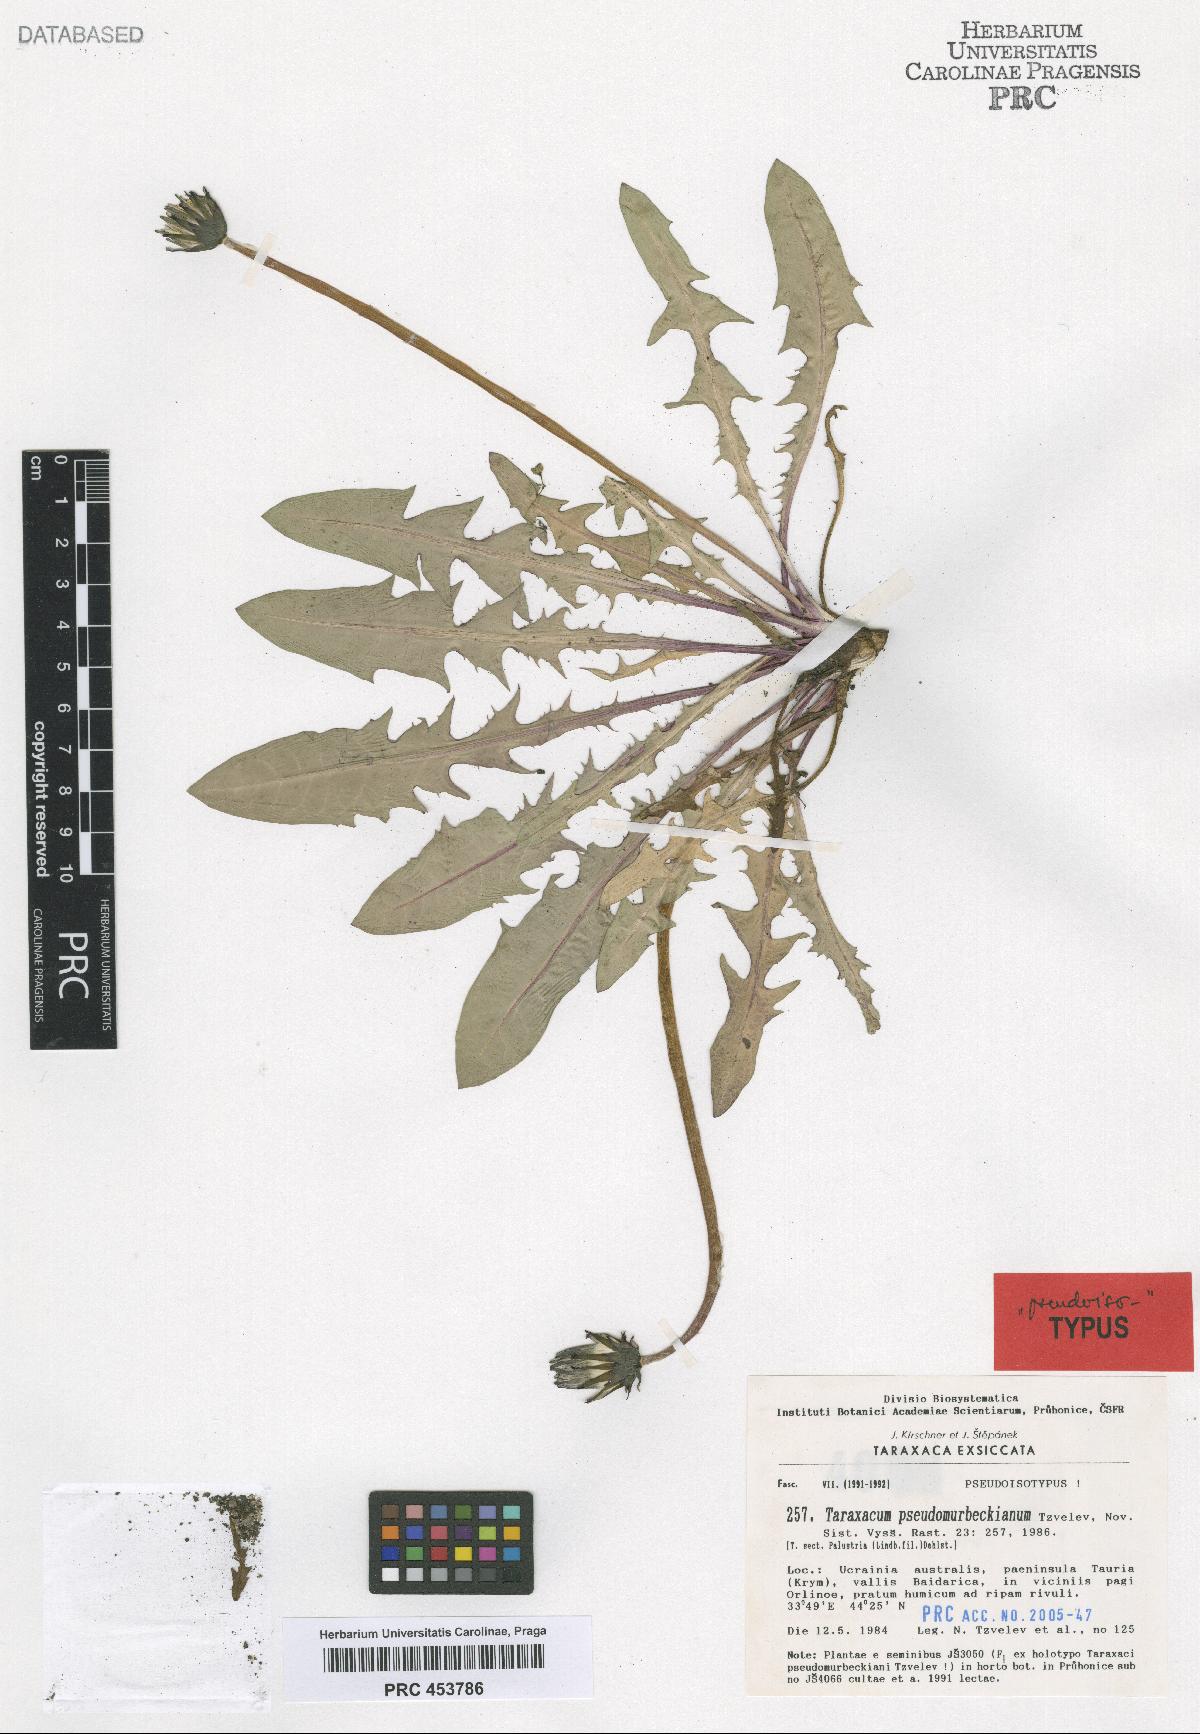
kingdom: Plantae
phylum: Tracheophyta
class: Magnoliopsida
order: Asterales
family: Asteraceae
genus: Taraxacum
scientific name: Taraxacum pseudomurbeckianum
